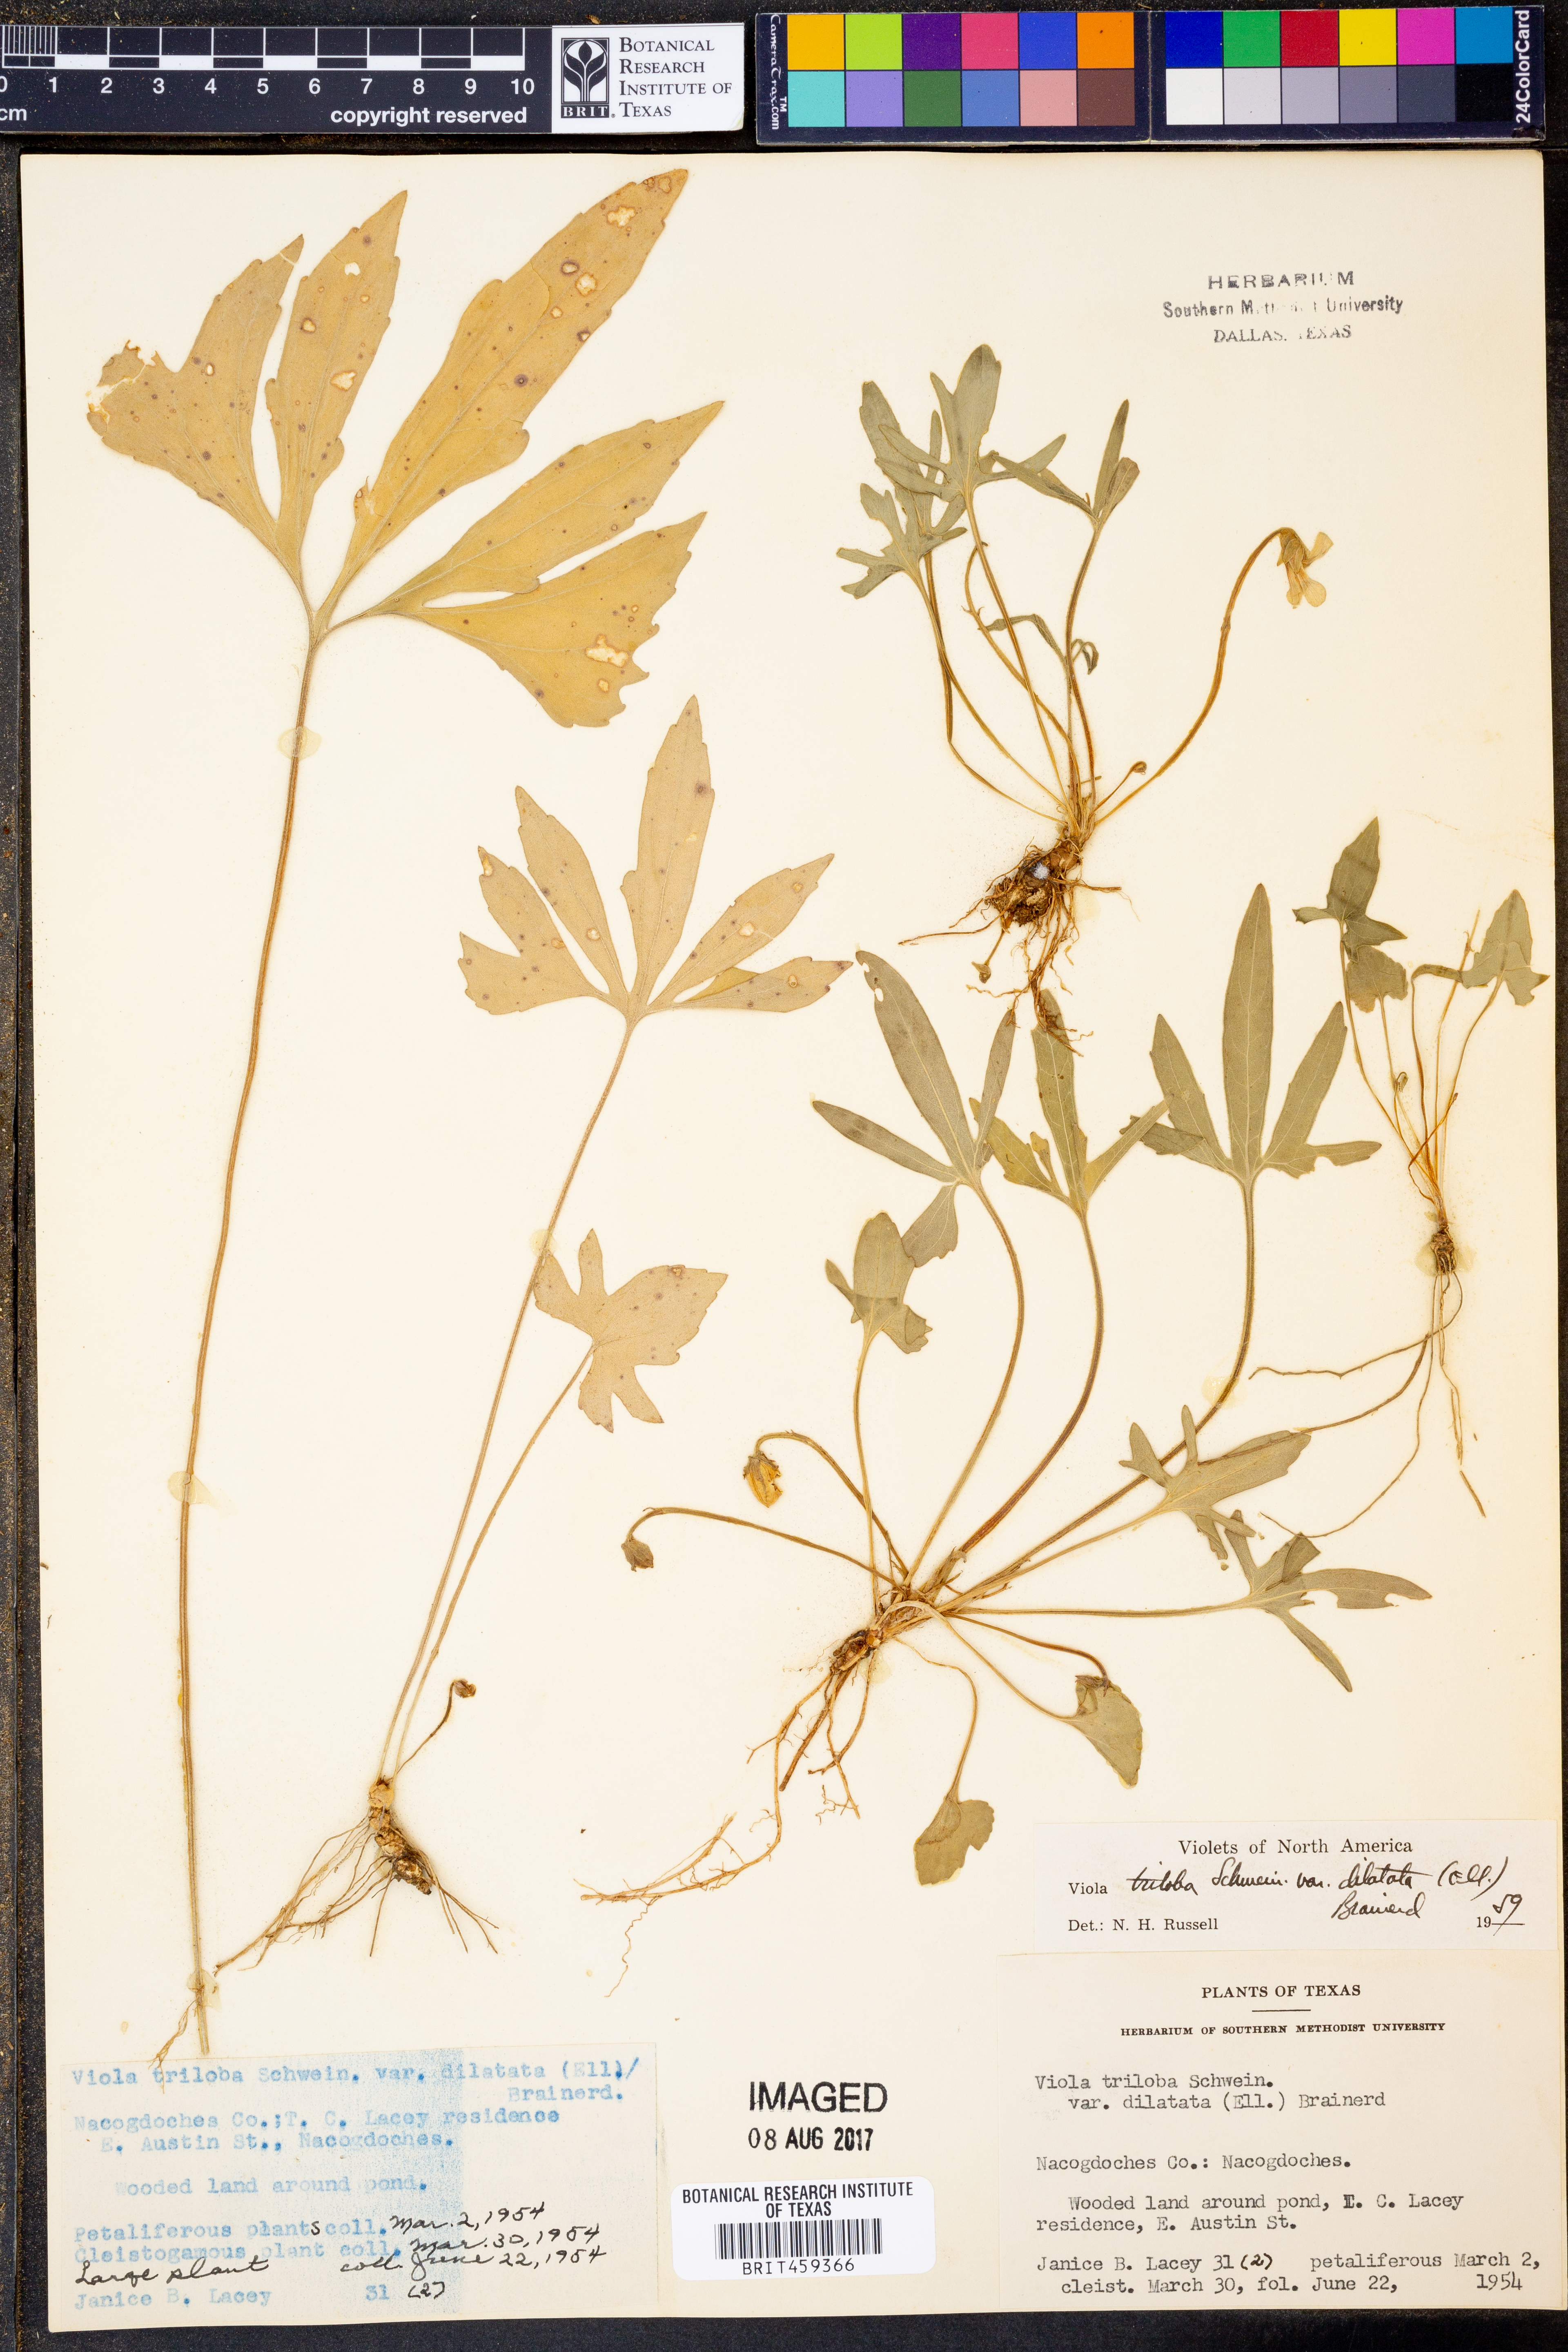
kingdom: Plantae
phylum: Tracheophyta
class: Magnoliopsida
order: Malpighiales
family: Violaceae
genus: Viola
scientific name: Viola palmata
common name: Early blue violet
